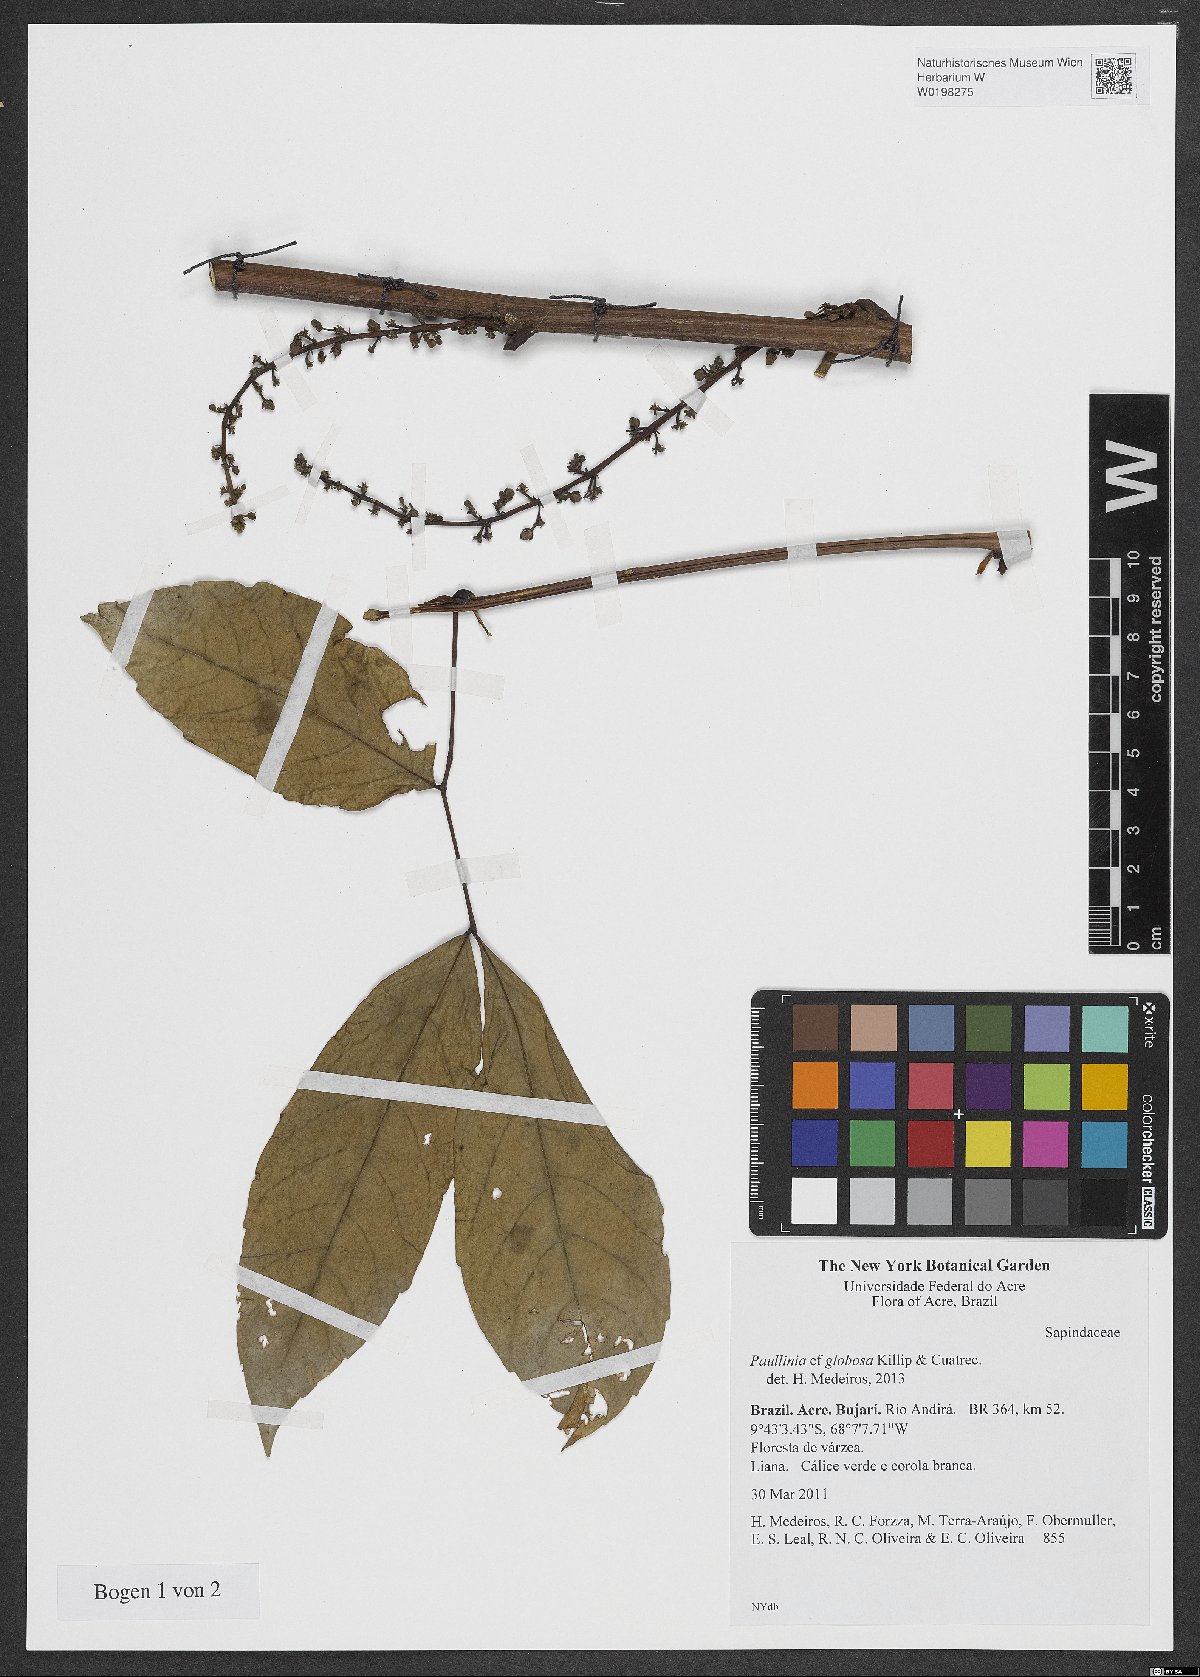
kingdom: Plantae
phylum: Tracheophyta
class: Magnoliopsida
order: Sapindales
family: Sapindaceae
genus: Paullinia
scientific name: Paullinia globosa
